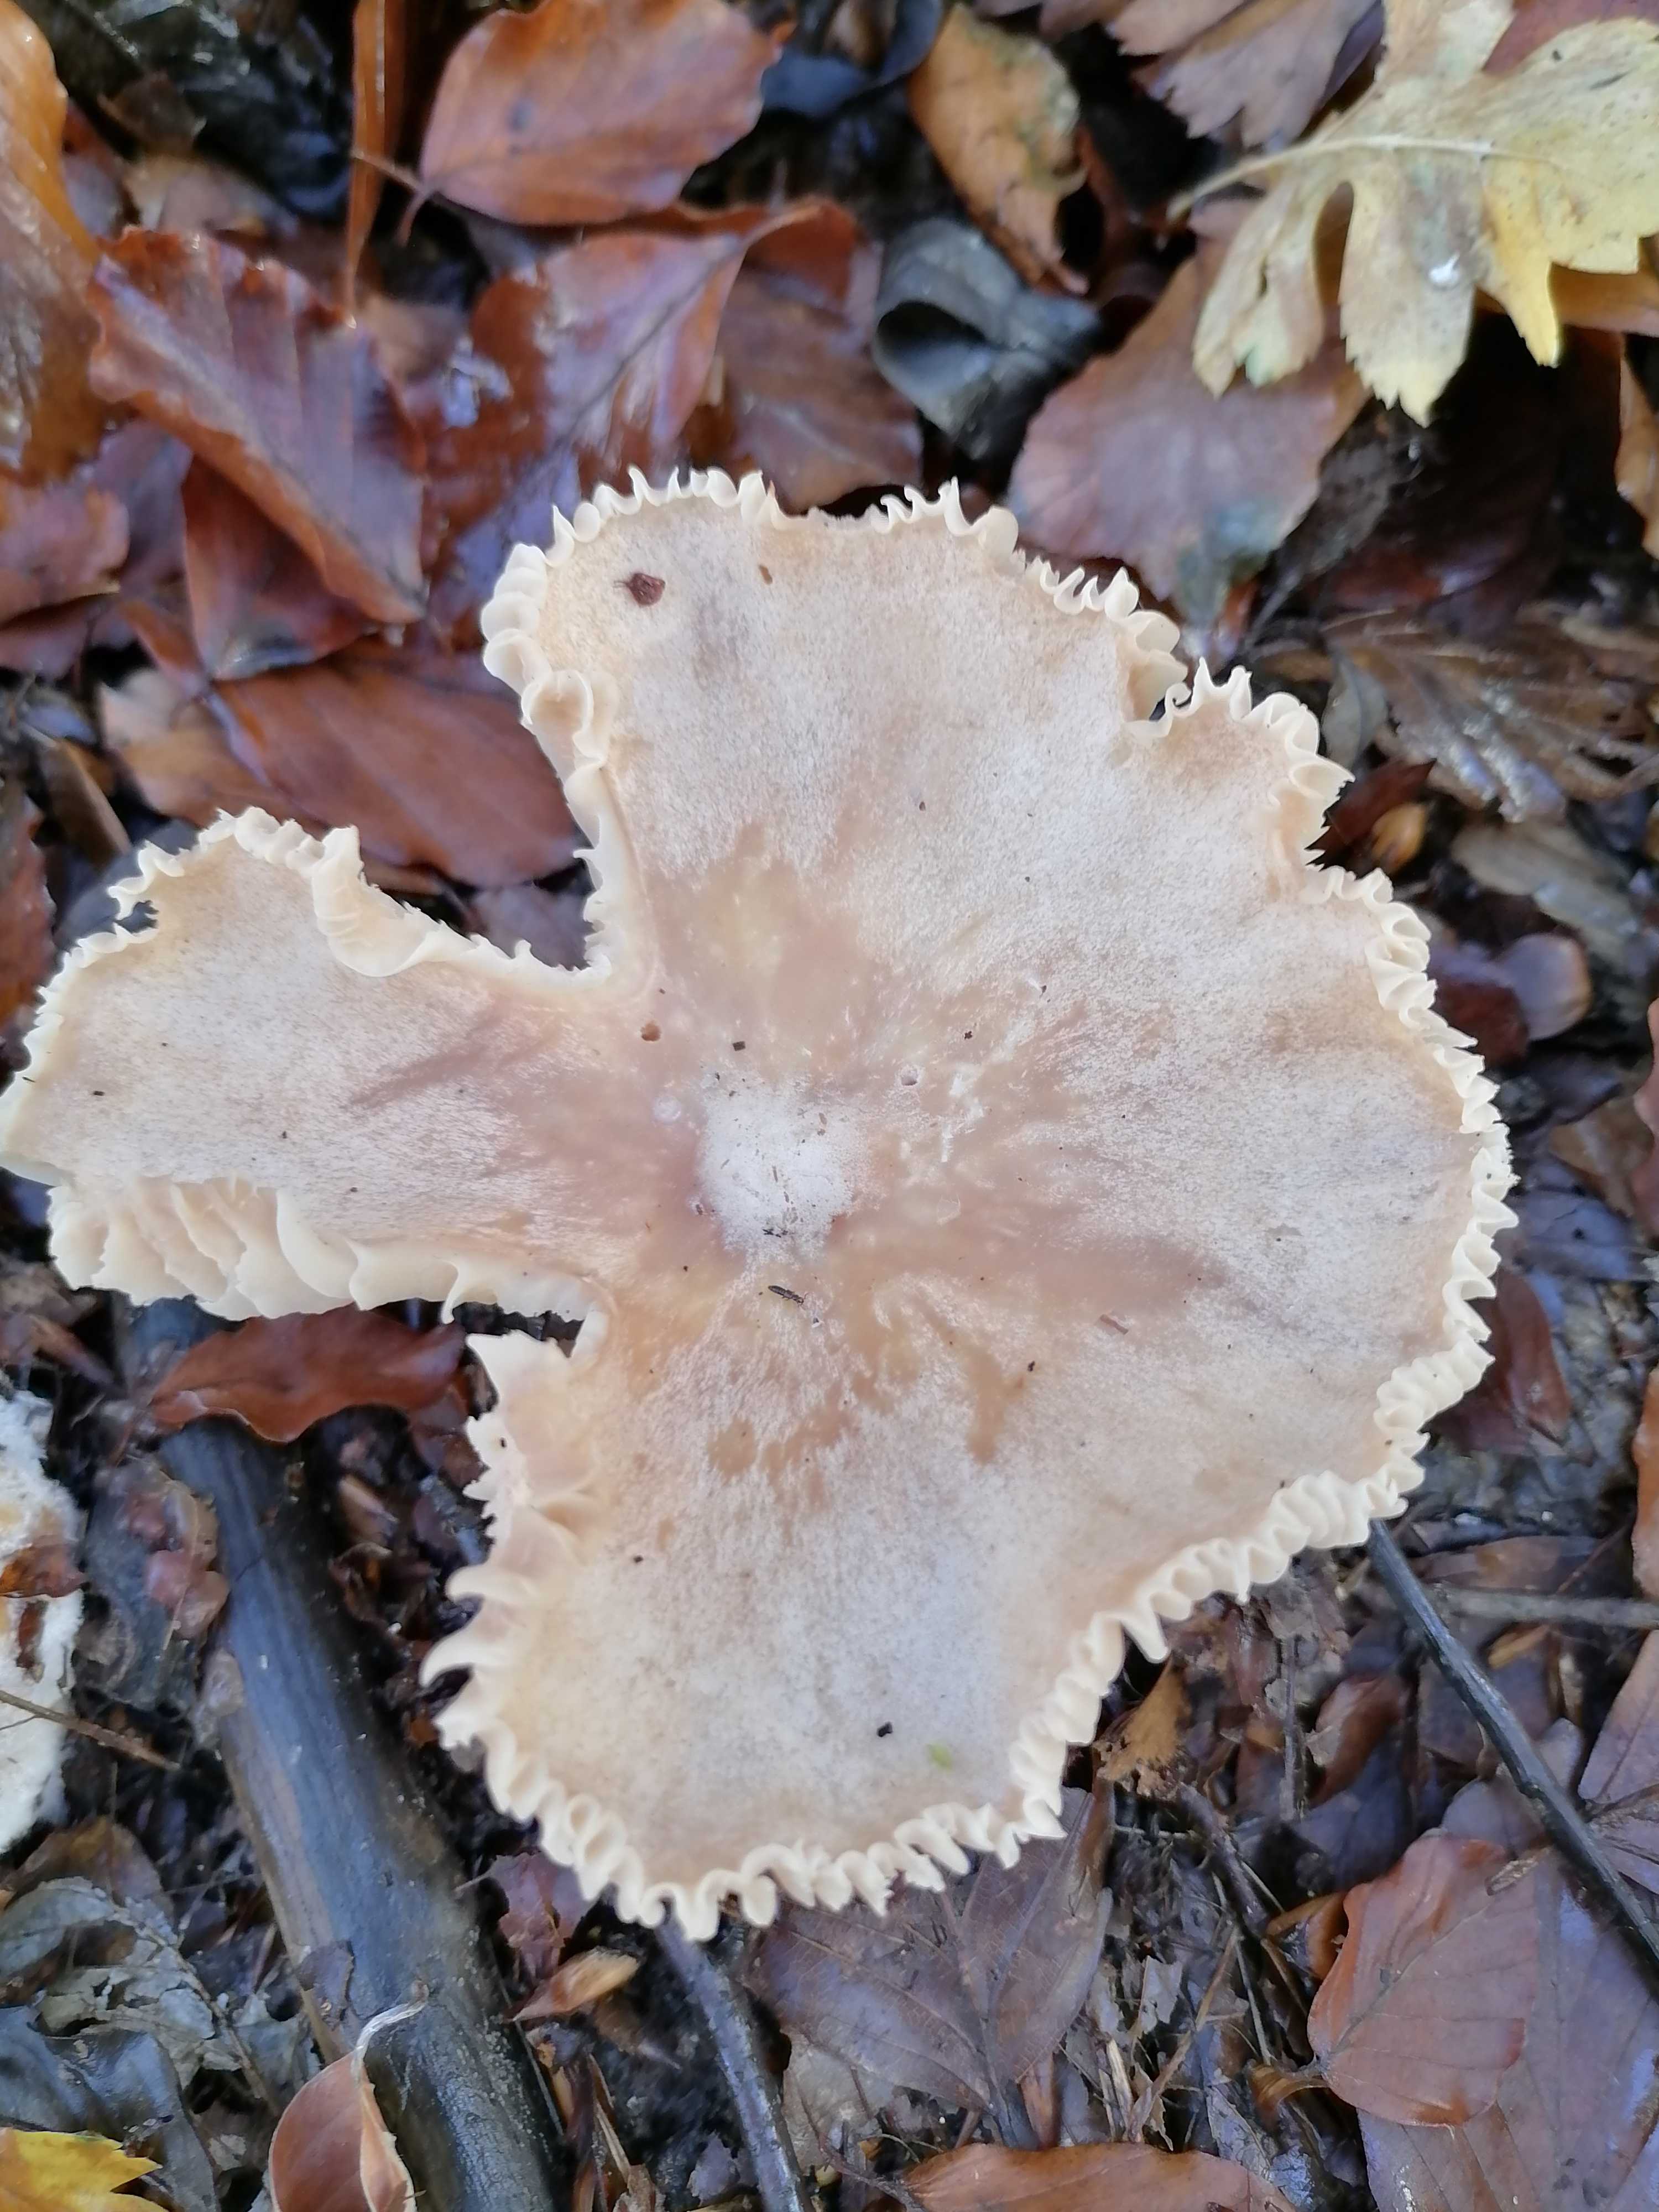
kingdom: Fungi
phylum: Basidiomycota
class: Agaricomycetes
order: Agaricales
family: Tricholomataceae
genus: Clitocybe
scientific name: Clitocybe
